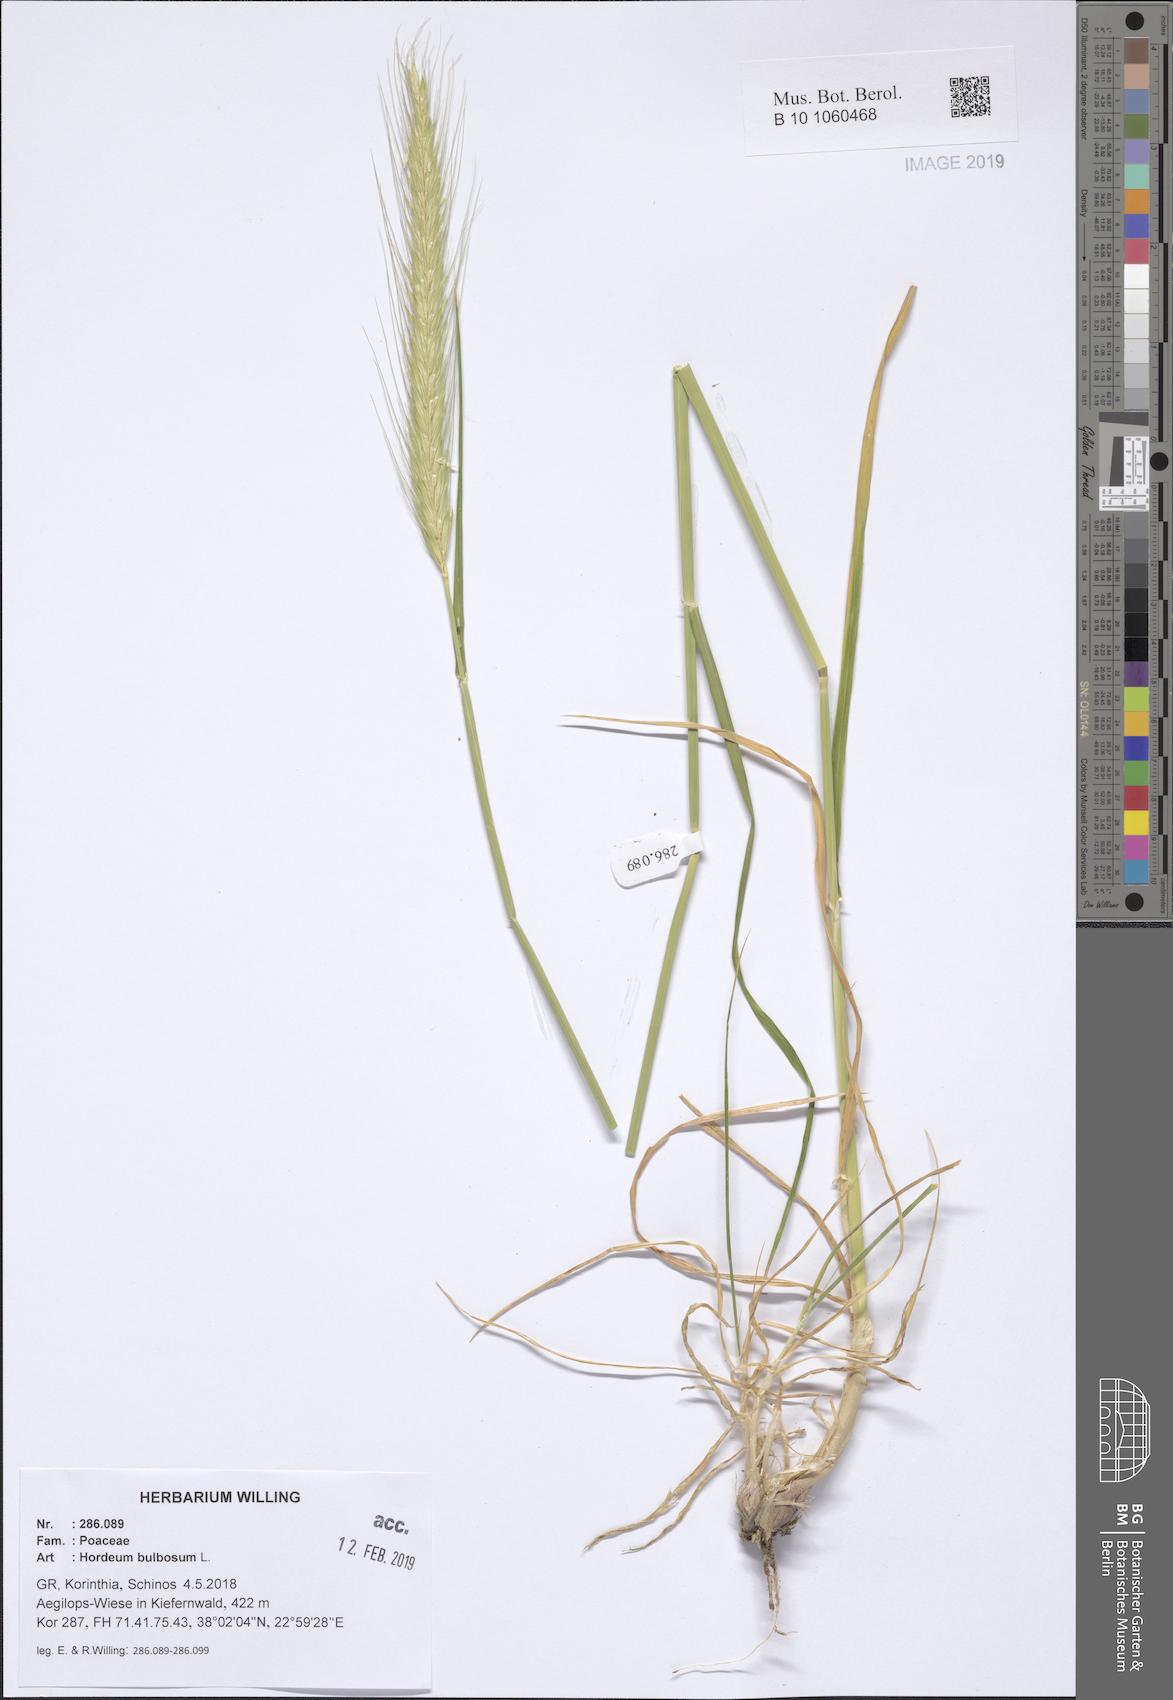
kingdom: Plantae
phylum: Tracheophyta
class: Liliopsida
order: Poales
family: Poaceae
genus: Hordeum
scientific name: Hordeum bulbosum
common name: Bulbous barley
